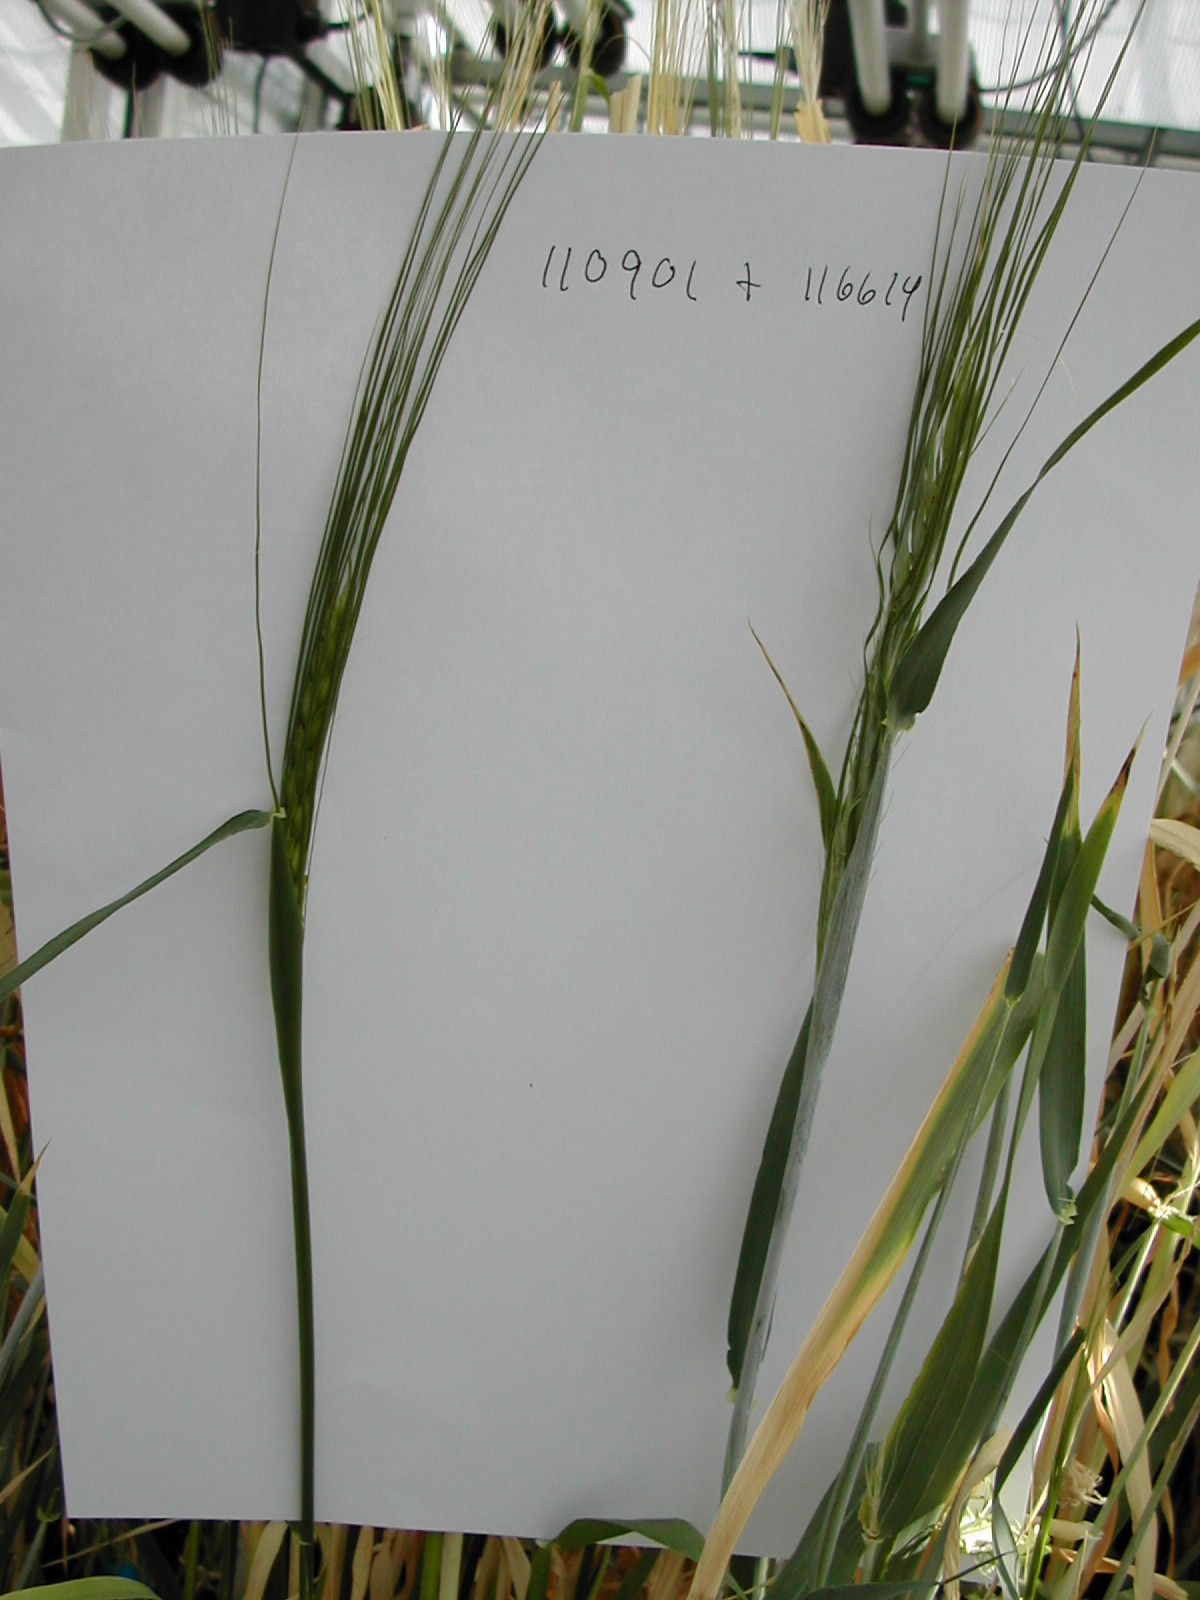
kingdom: Plantae
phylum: Tracheophyta
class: Liliopsida
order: Poales
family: Poaceae
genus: Hordeum
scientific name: Hordeum vulgare
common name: Common barley
